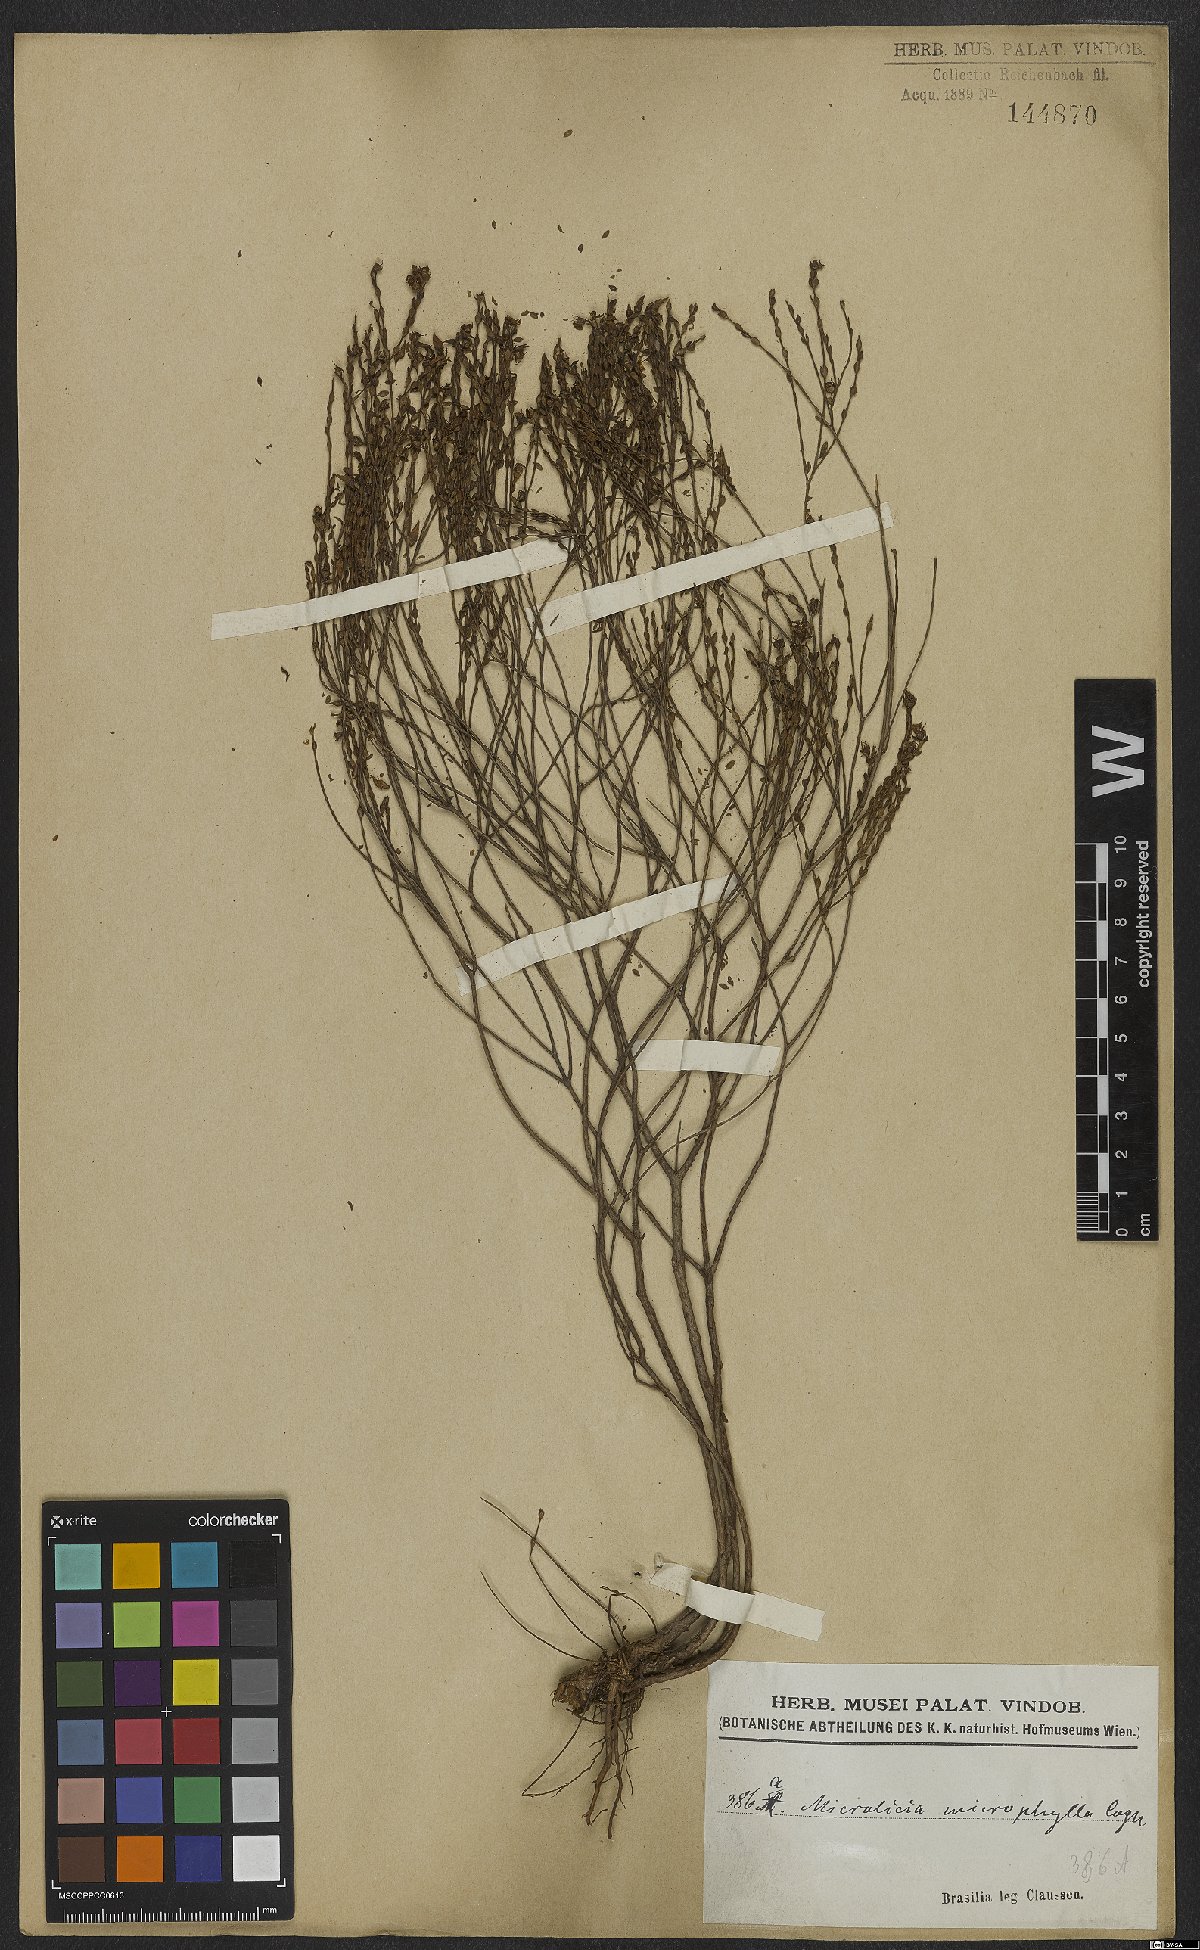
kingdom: Plantae
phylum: Tracheophyta
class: Magnoliopsida
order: Myrtales
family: Melastomataceae
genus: Microlicia
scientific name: Microlicia microphylla
